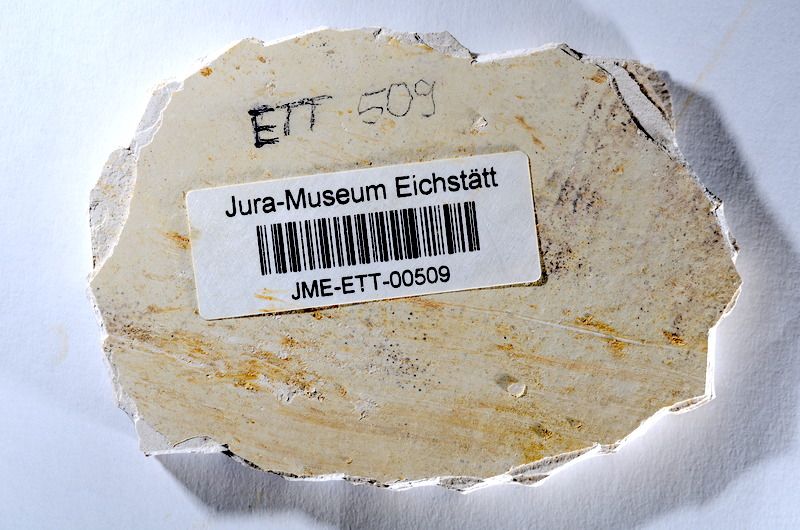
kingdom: Animalia
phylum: Chordata
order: Salmoniformes
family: Orthogonikleithridae
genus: Orthogonikleithrus
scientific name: Orthogonikleithrus hoelli
